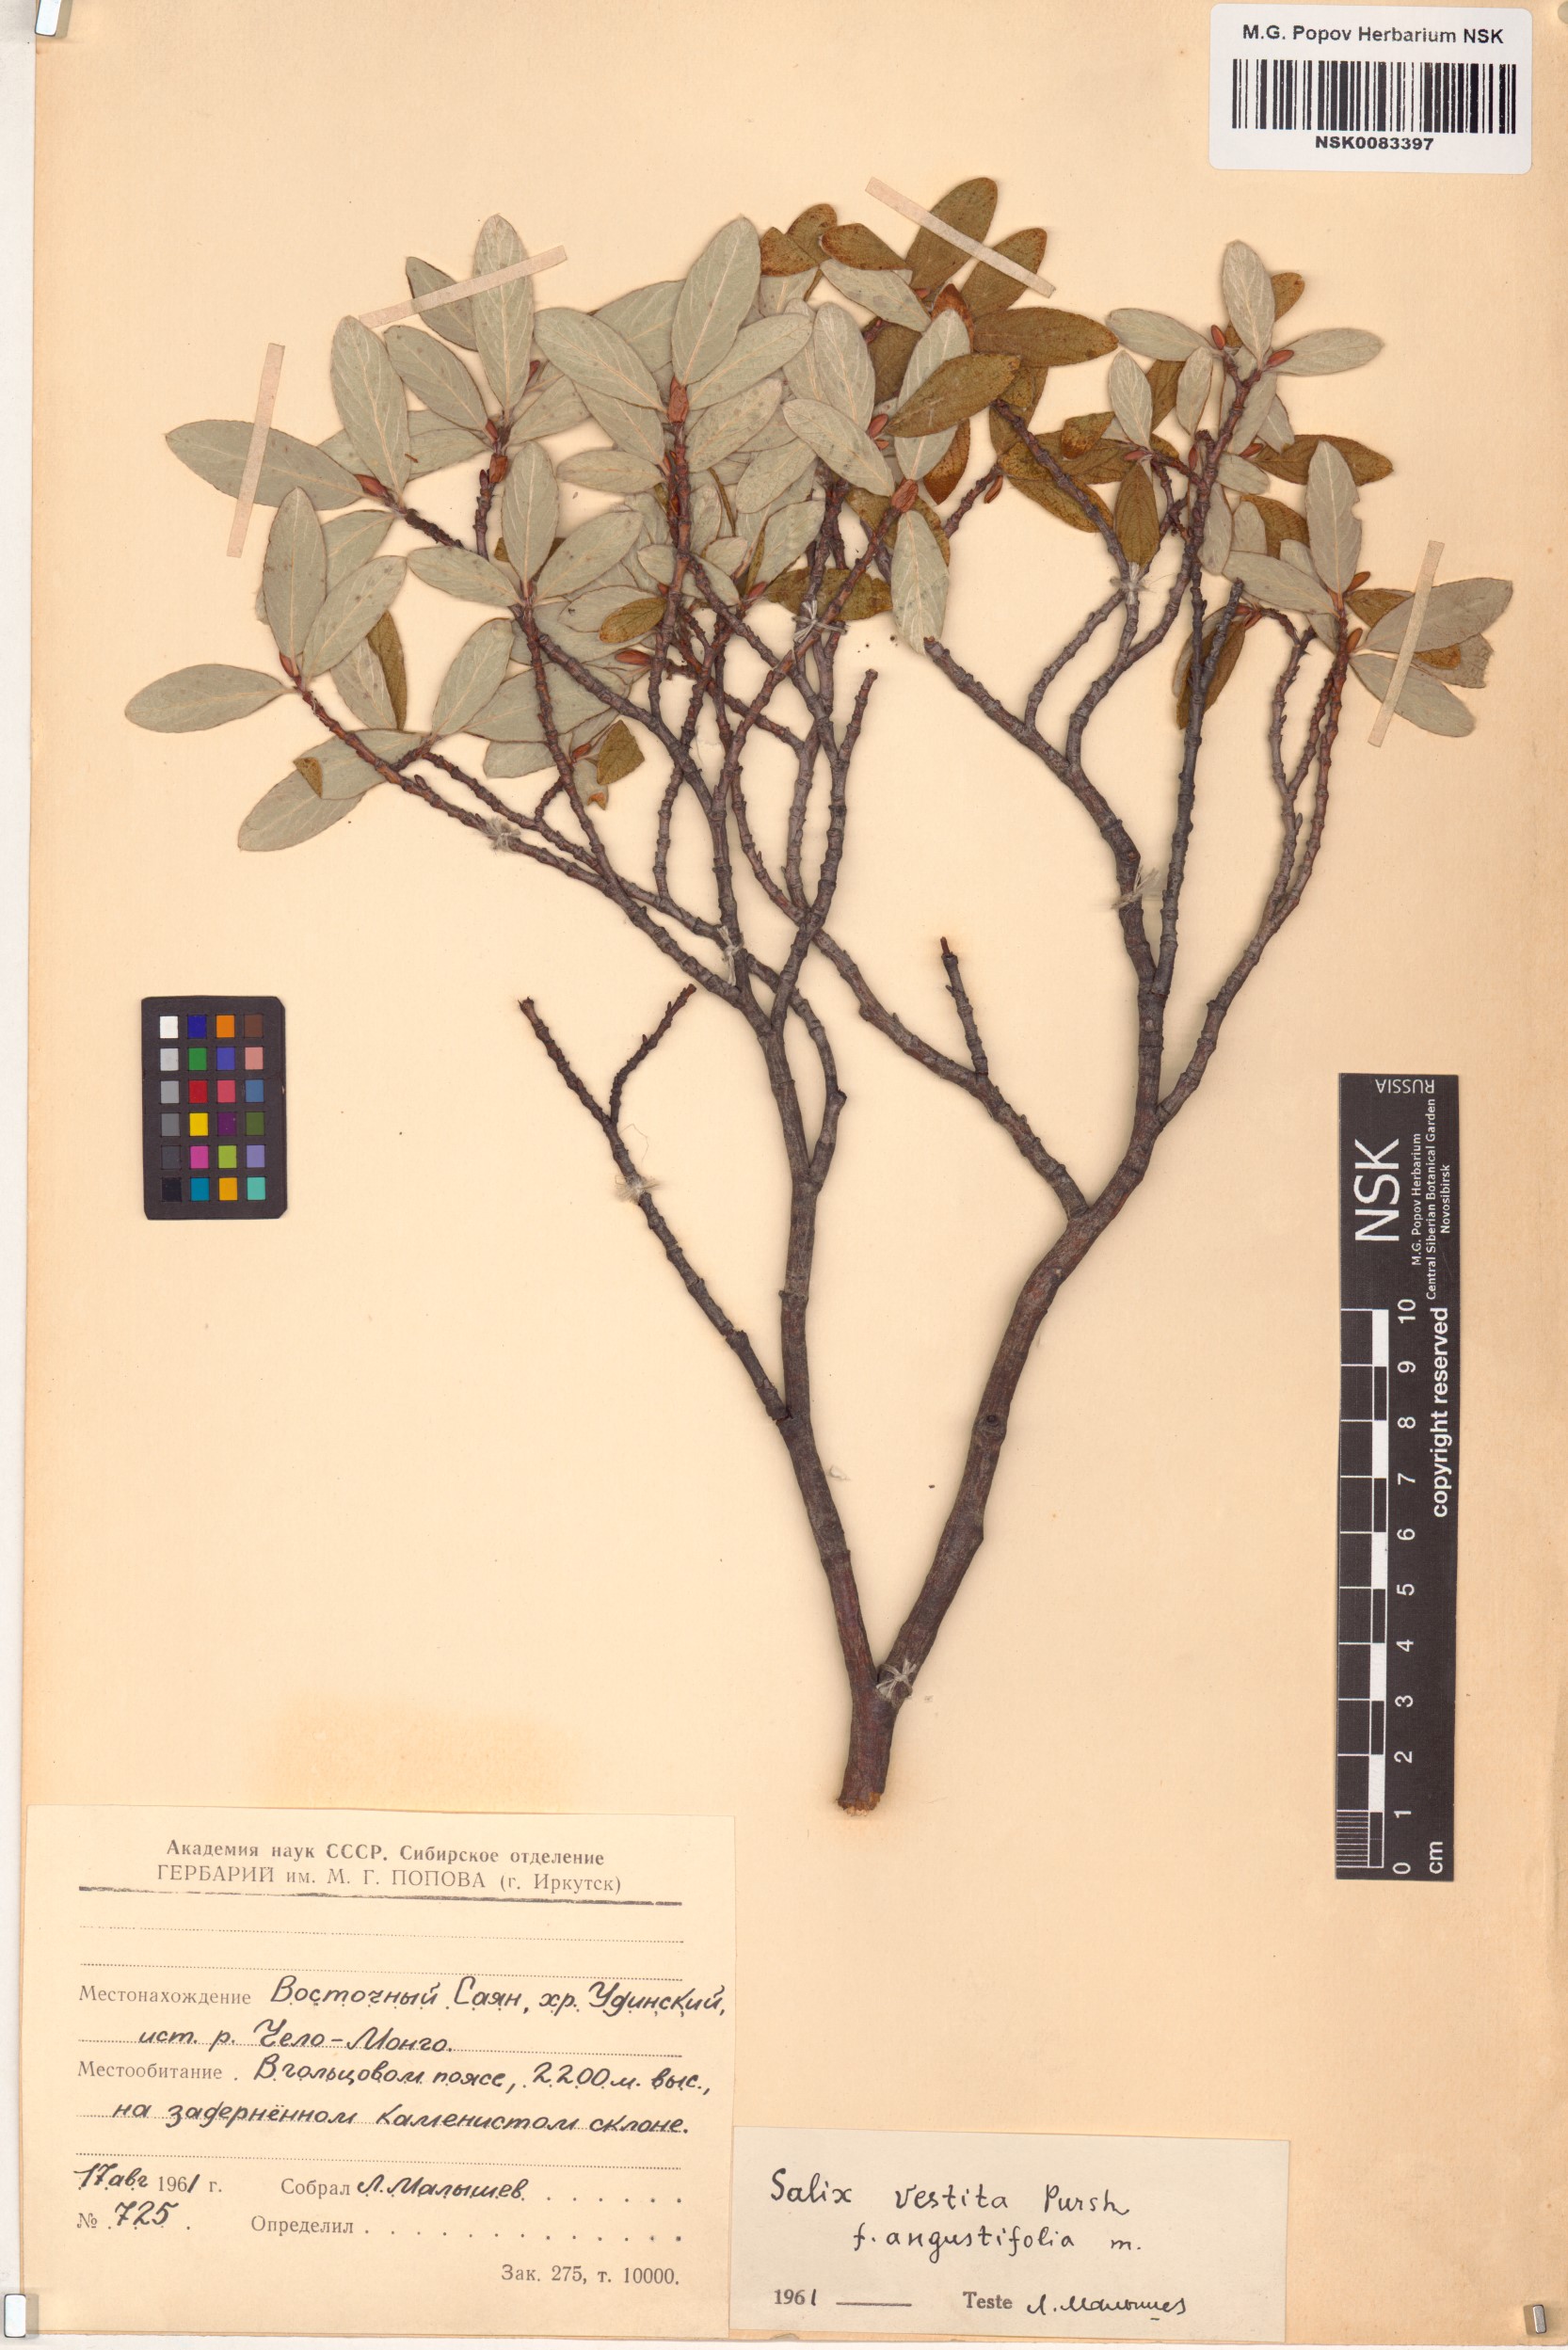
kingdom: Plantae
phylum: Tracheophyta
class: Magnoliopsida
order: Malpighiales
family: Salicaceae
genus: Salix
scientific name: Salix vestita
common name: Hairy willow
